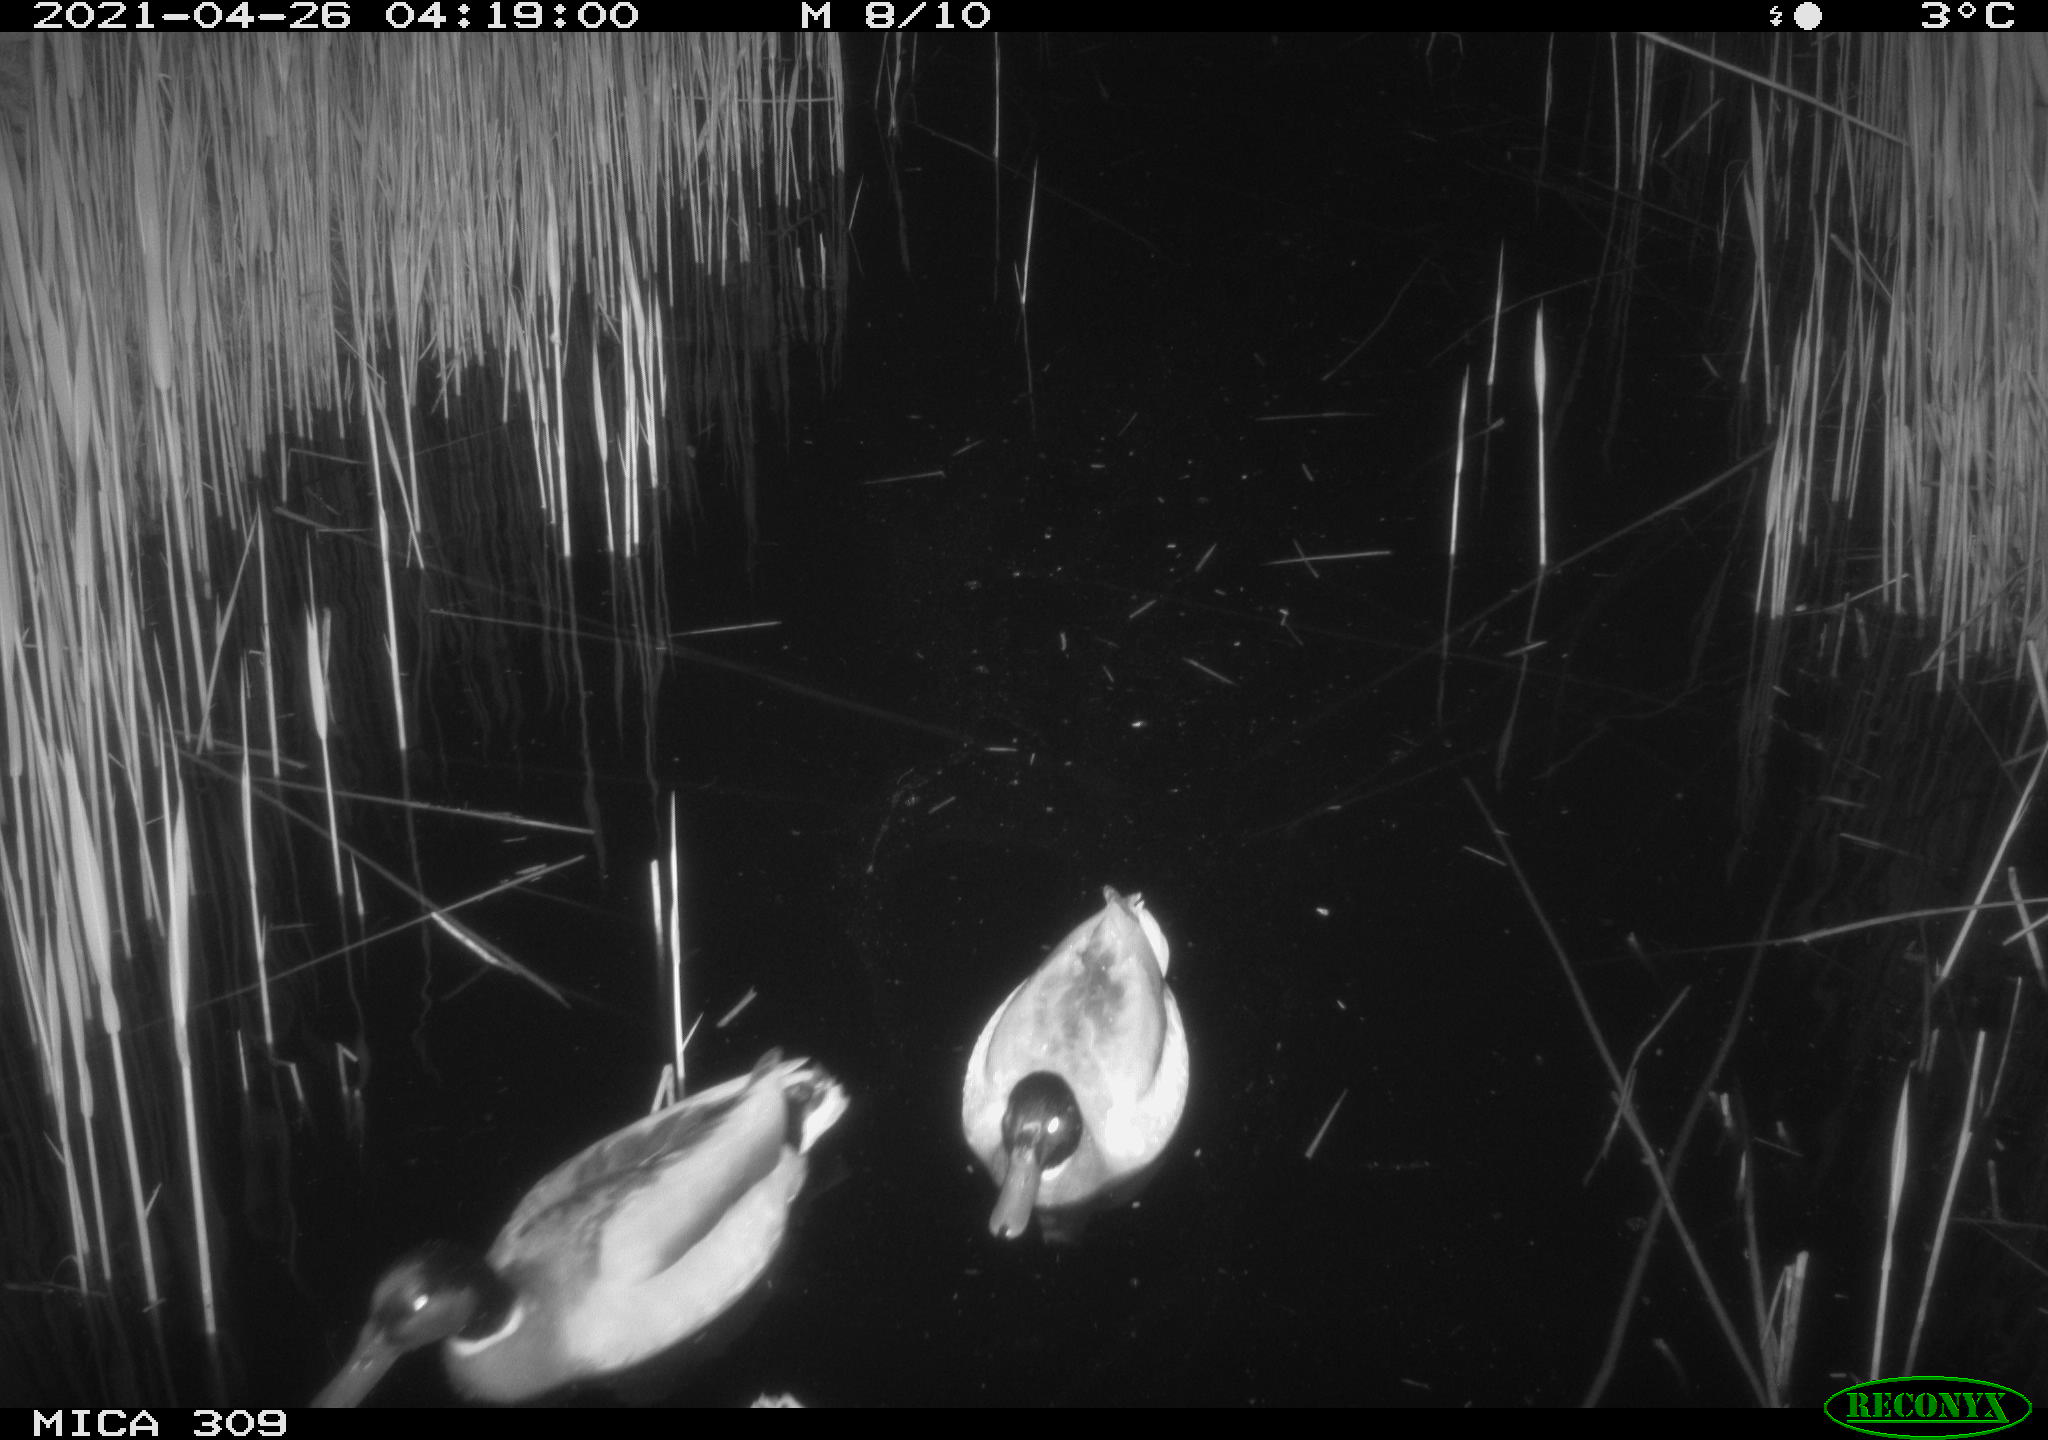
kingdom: Animalia
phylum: Chordata
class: Aves
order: Anseriformes
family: Anatidae
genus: Anas
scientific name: Anas platyrhynchos
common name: Mallard
